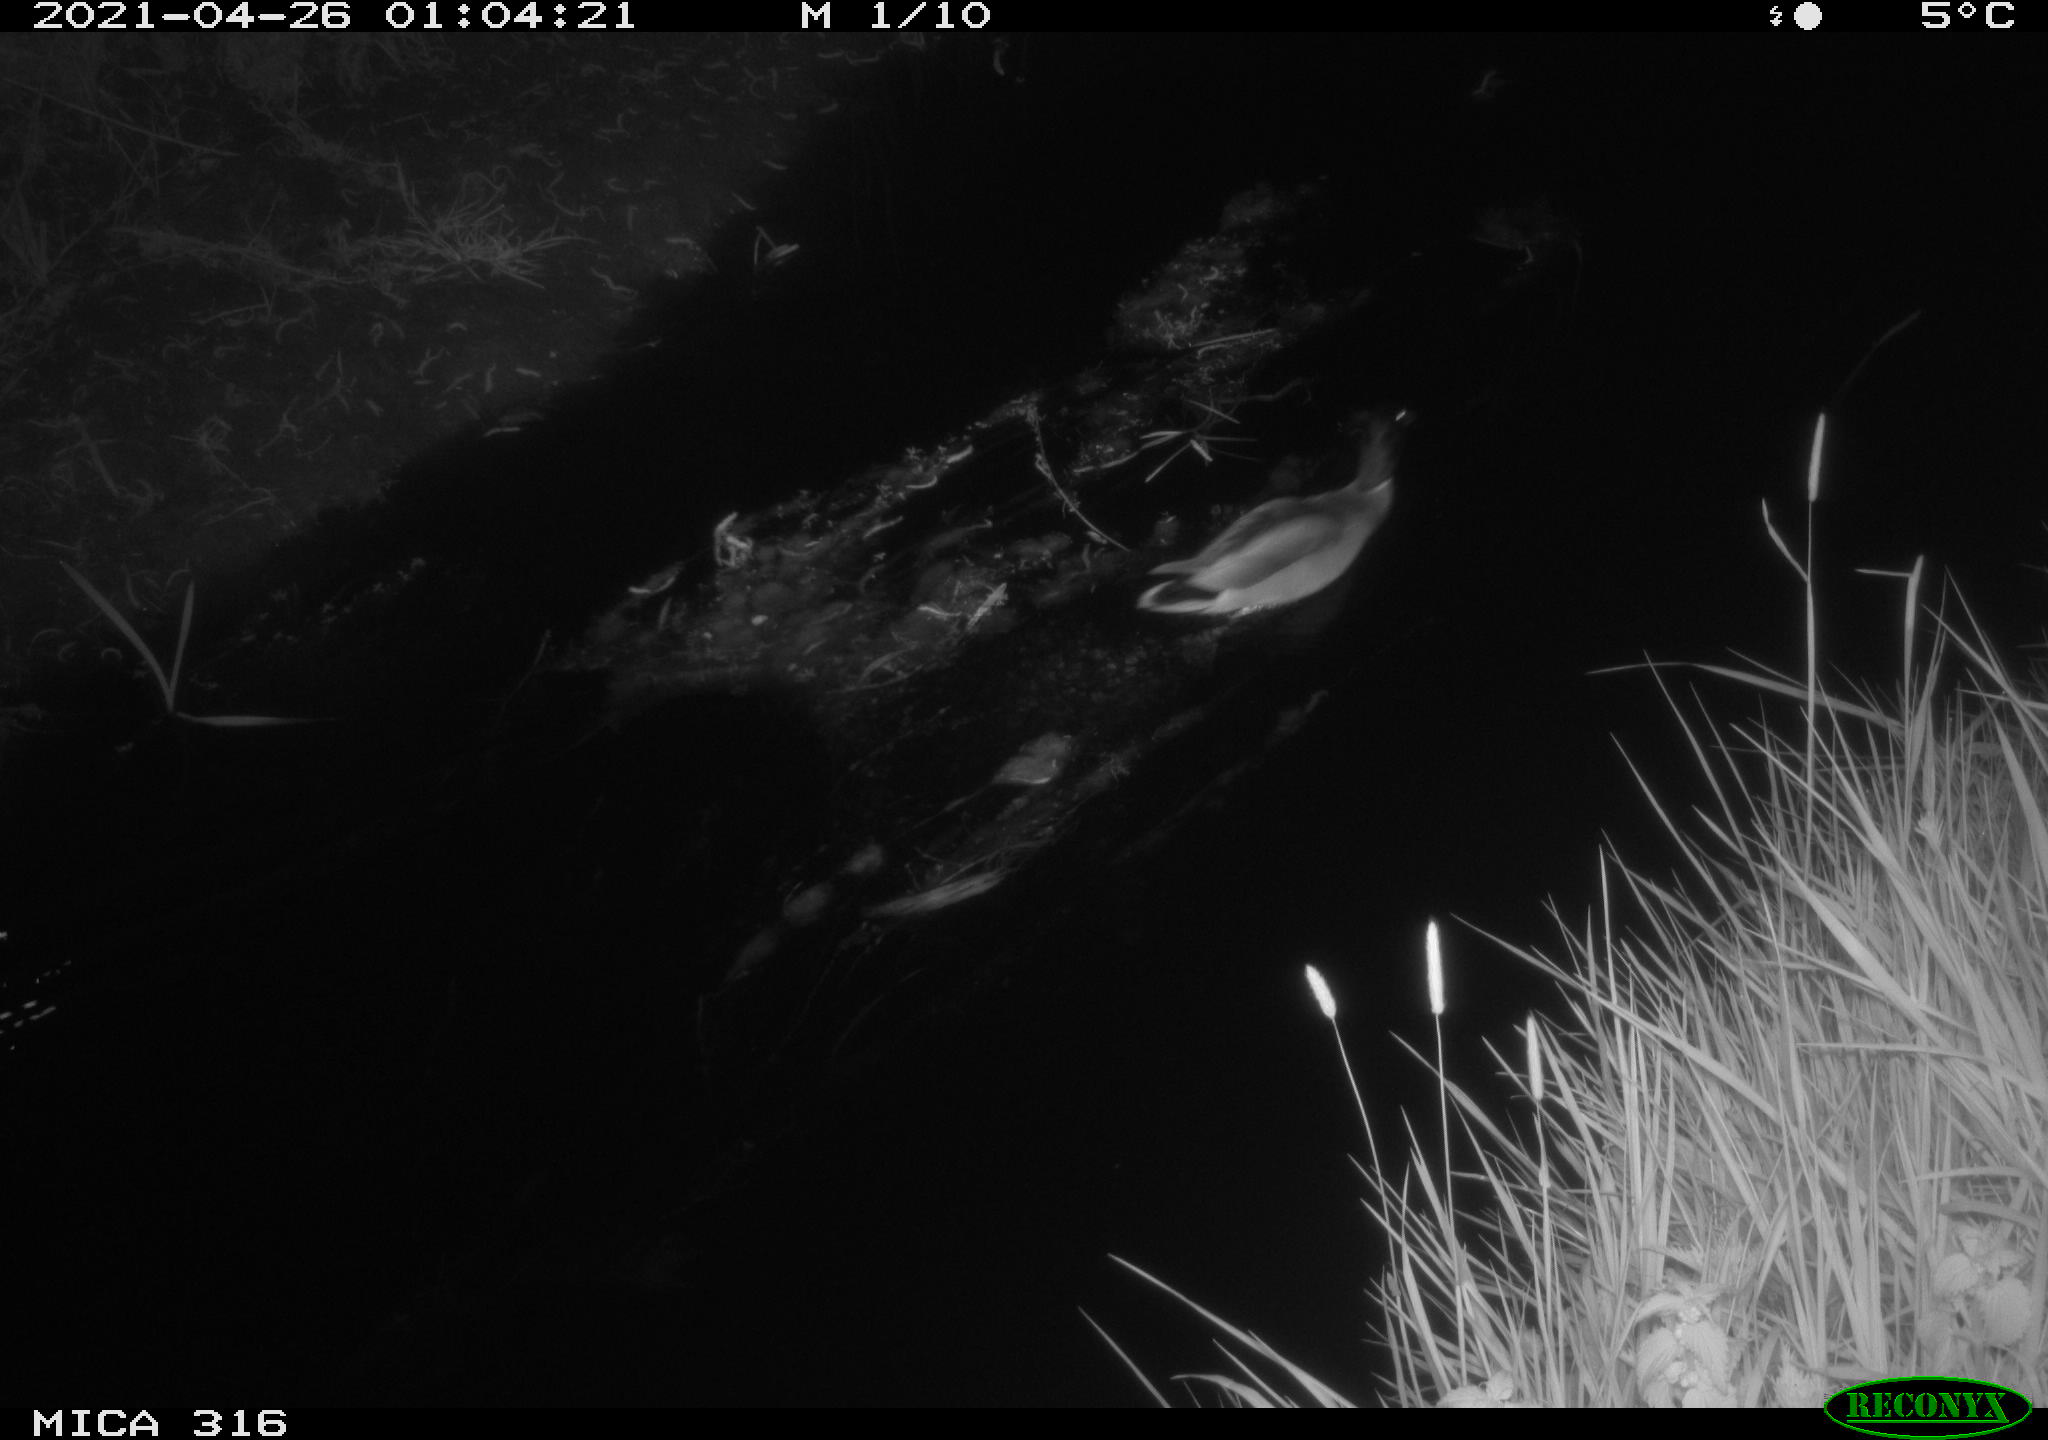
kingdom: Animalia
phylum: Chordata
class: Aves
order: Anseriformes
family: Anatidae
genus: Anas
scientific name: Anas platyrhynchos
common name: Mallard
